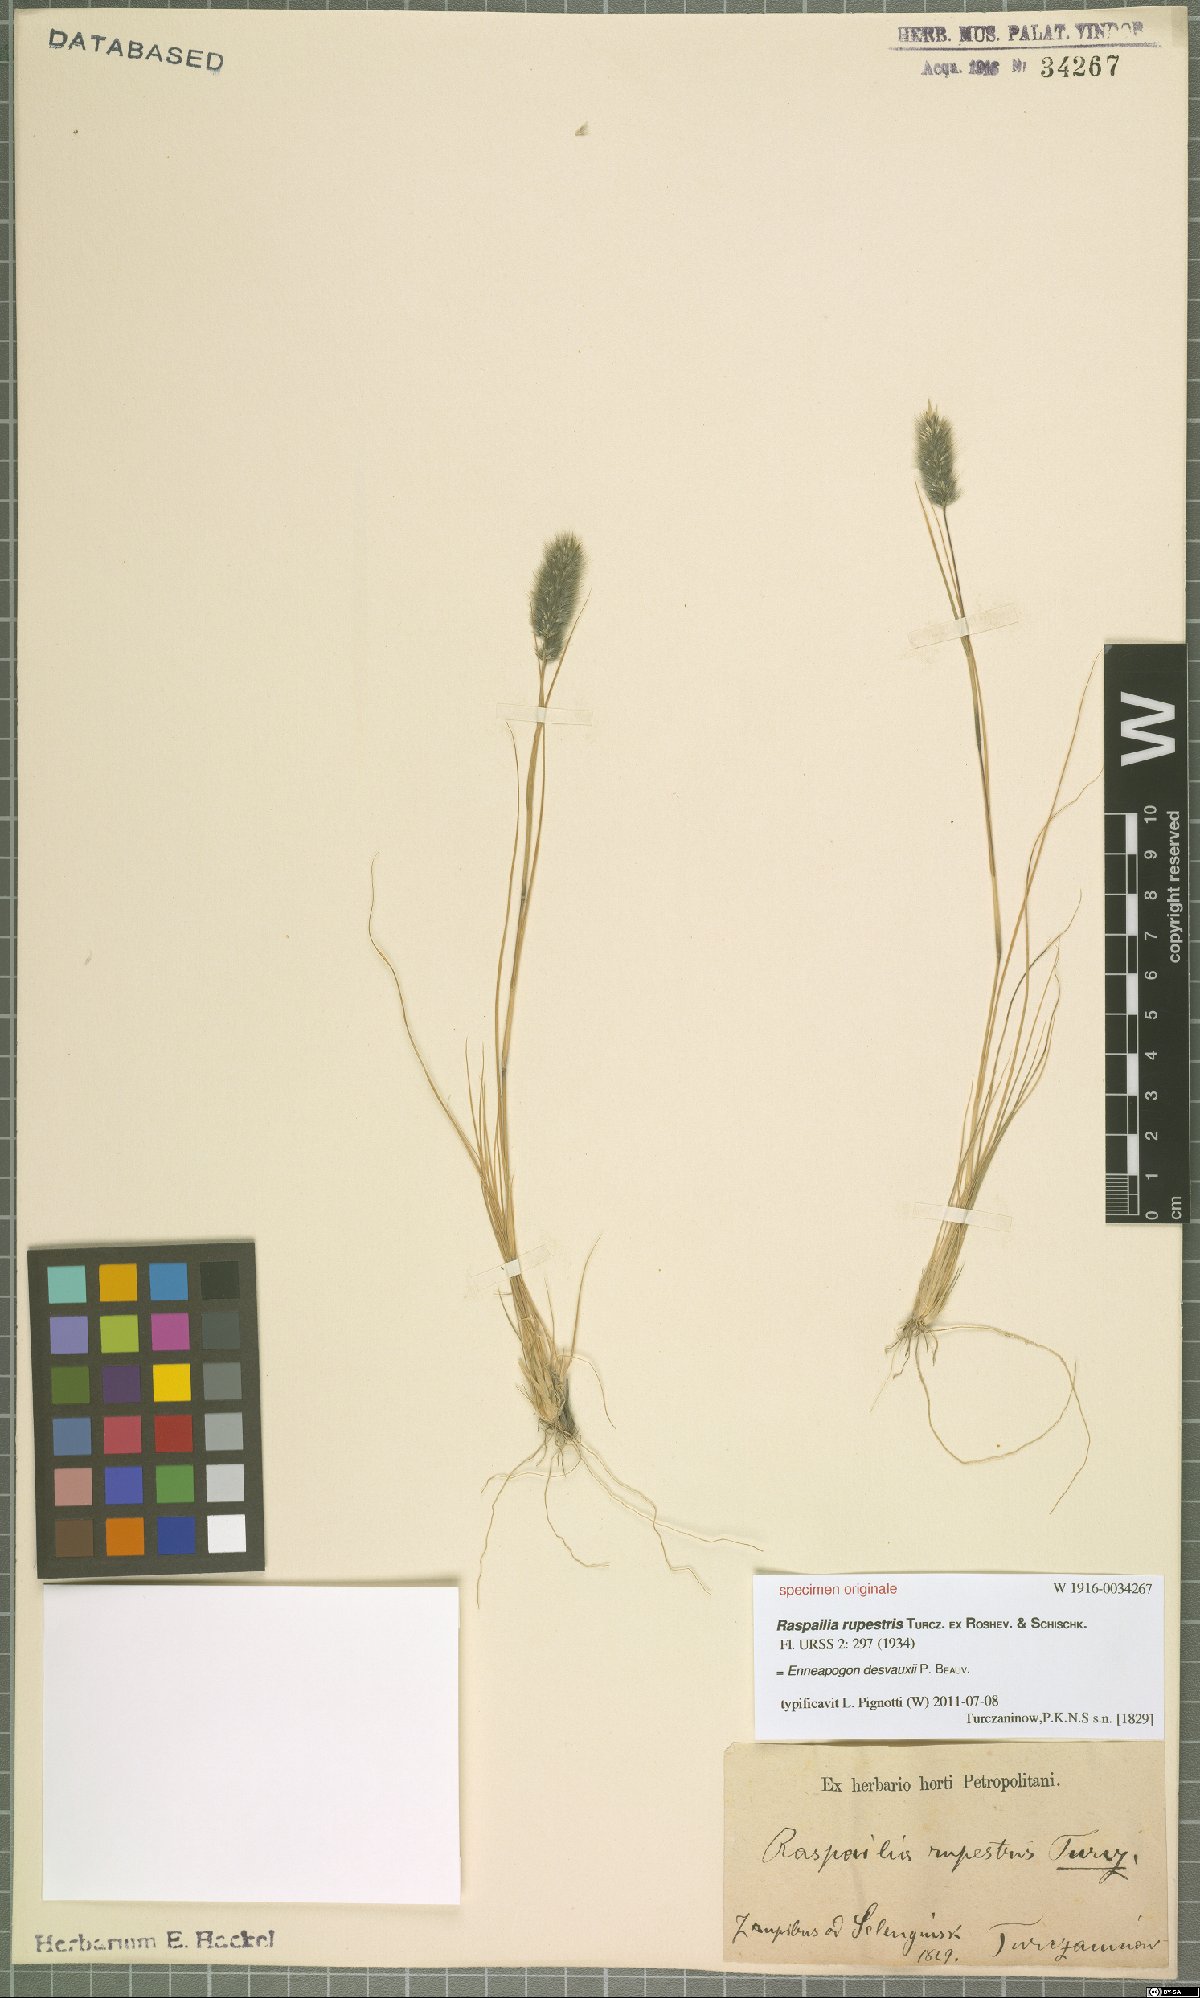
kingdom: Plantae
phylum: Tracheophyta
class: Liliopsida
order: Poales
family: Poaceae
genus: Enneapogon
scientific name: Enneapogon desvauxii
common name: Feather pappus grass
